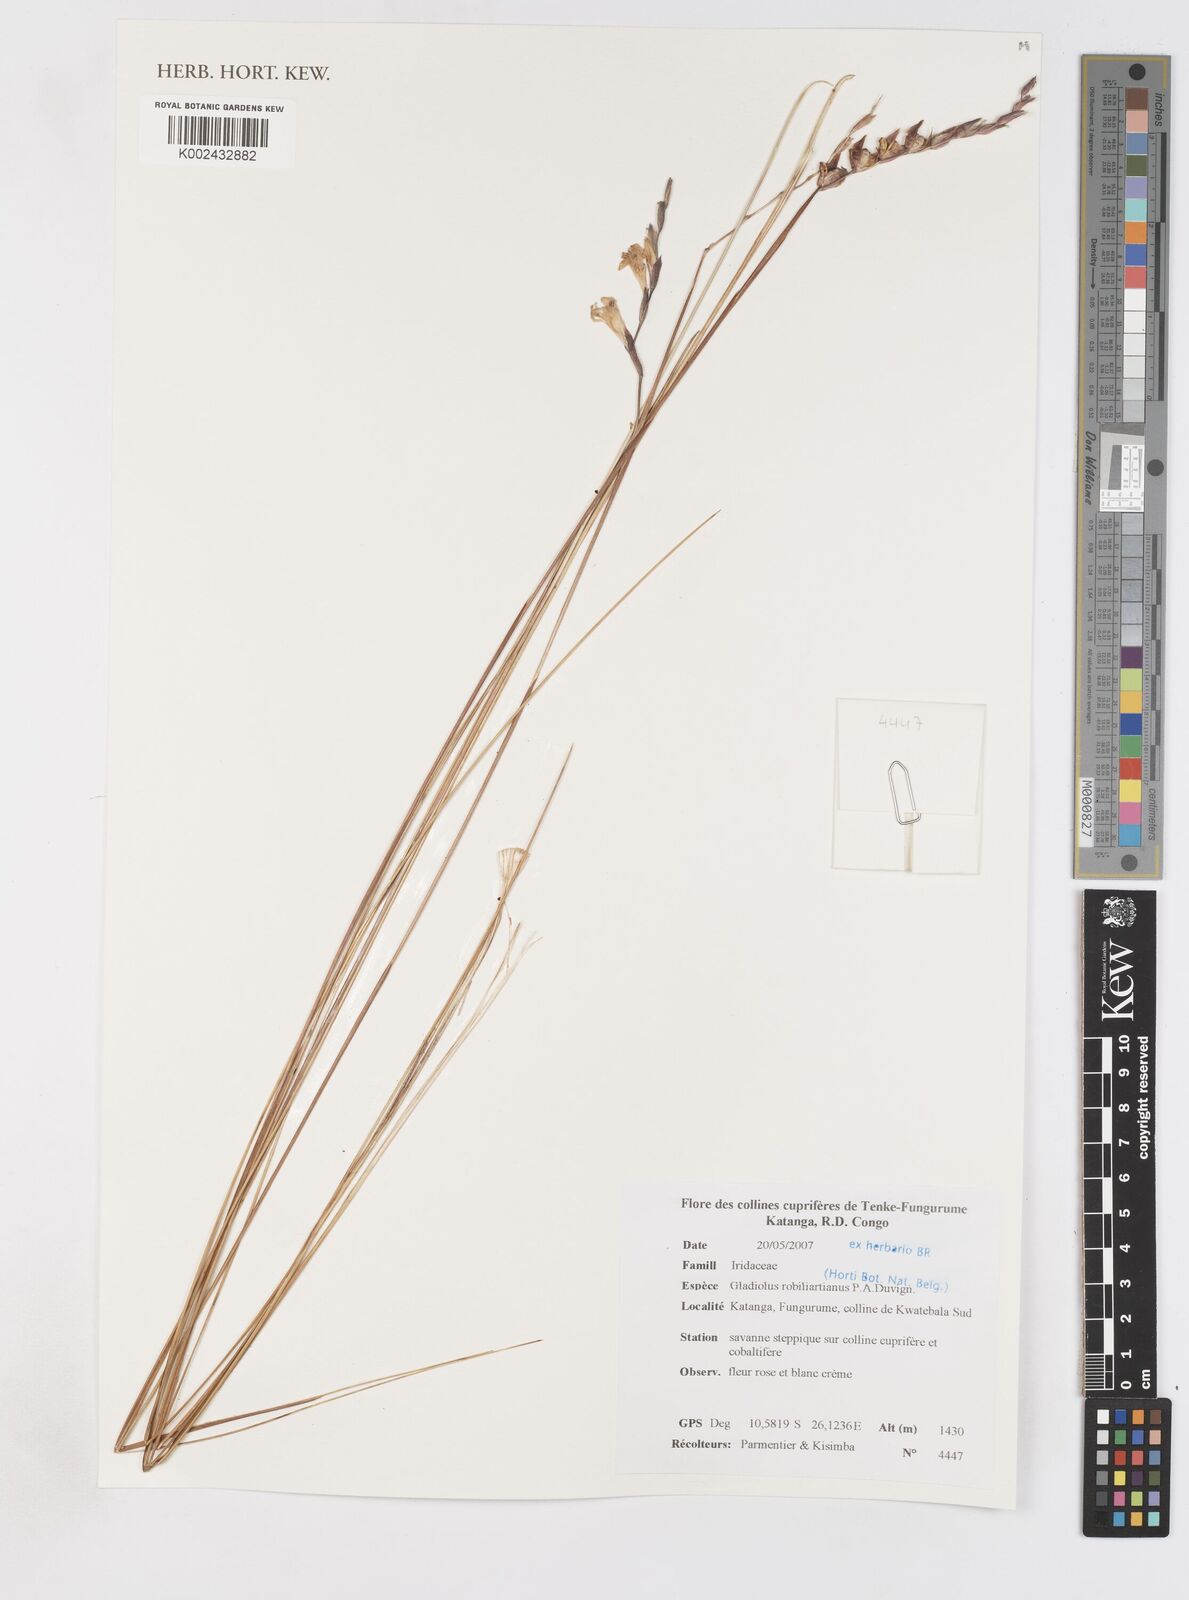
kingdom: Plantae
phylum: Tracheophyta
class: Liliopsida
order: Asparagales
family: Iridaceae
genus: Gladiolus
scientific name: Gladiolus robiliartianus
